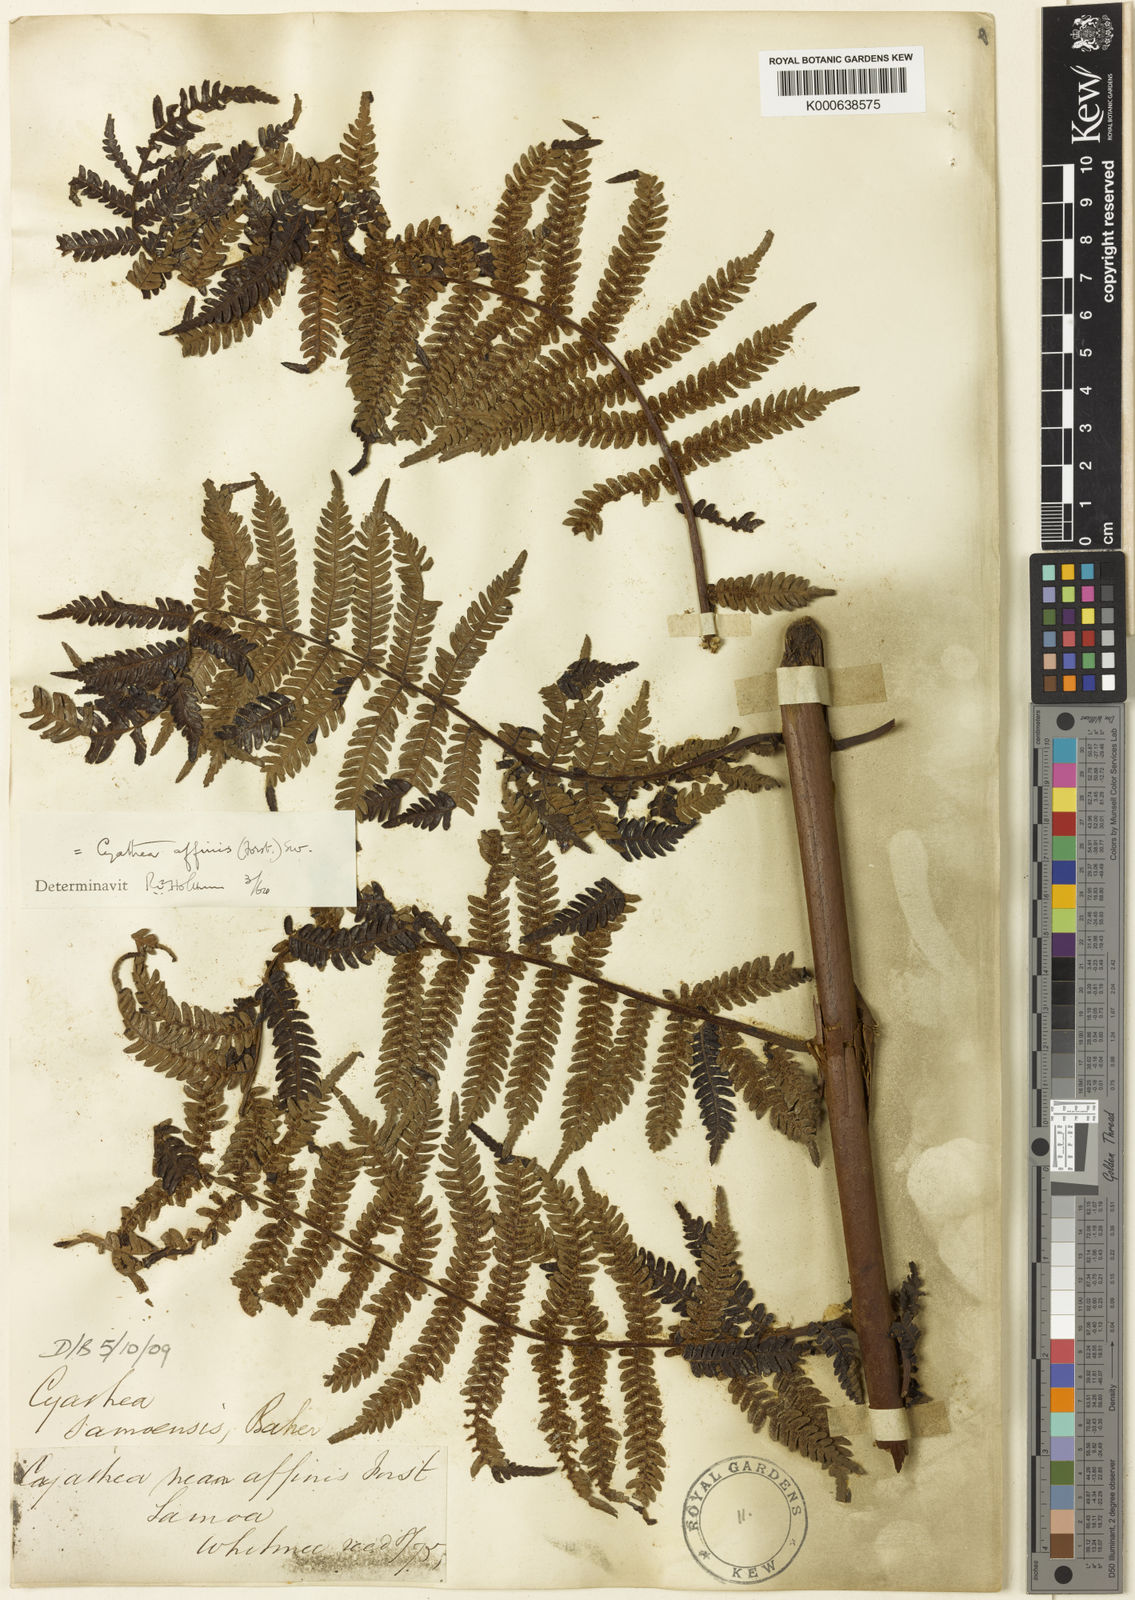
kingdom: Plantae
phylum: Tracheophyta
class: Polypodiopsida
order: Cyatheales
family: Cyatheaceae
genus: Alsophila
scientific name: Alsophila tahitensis
